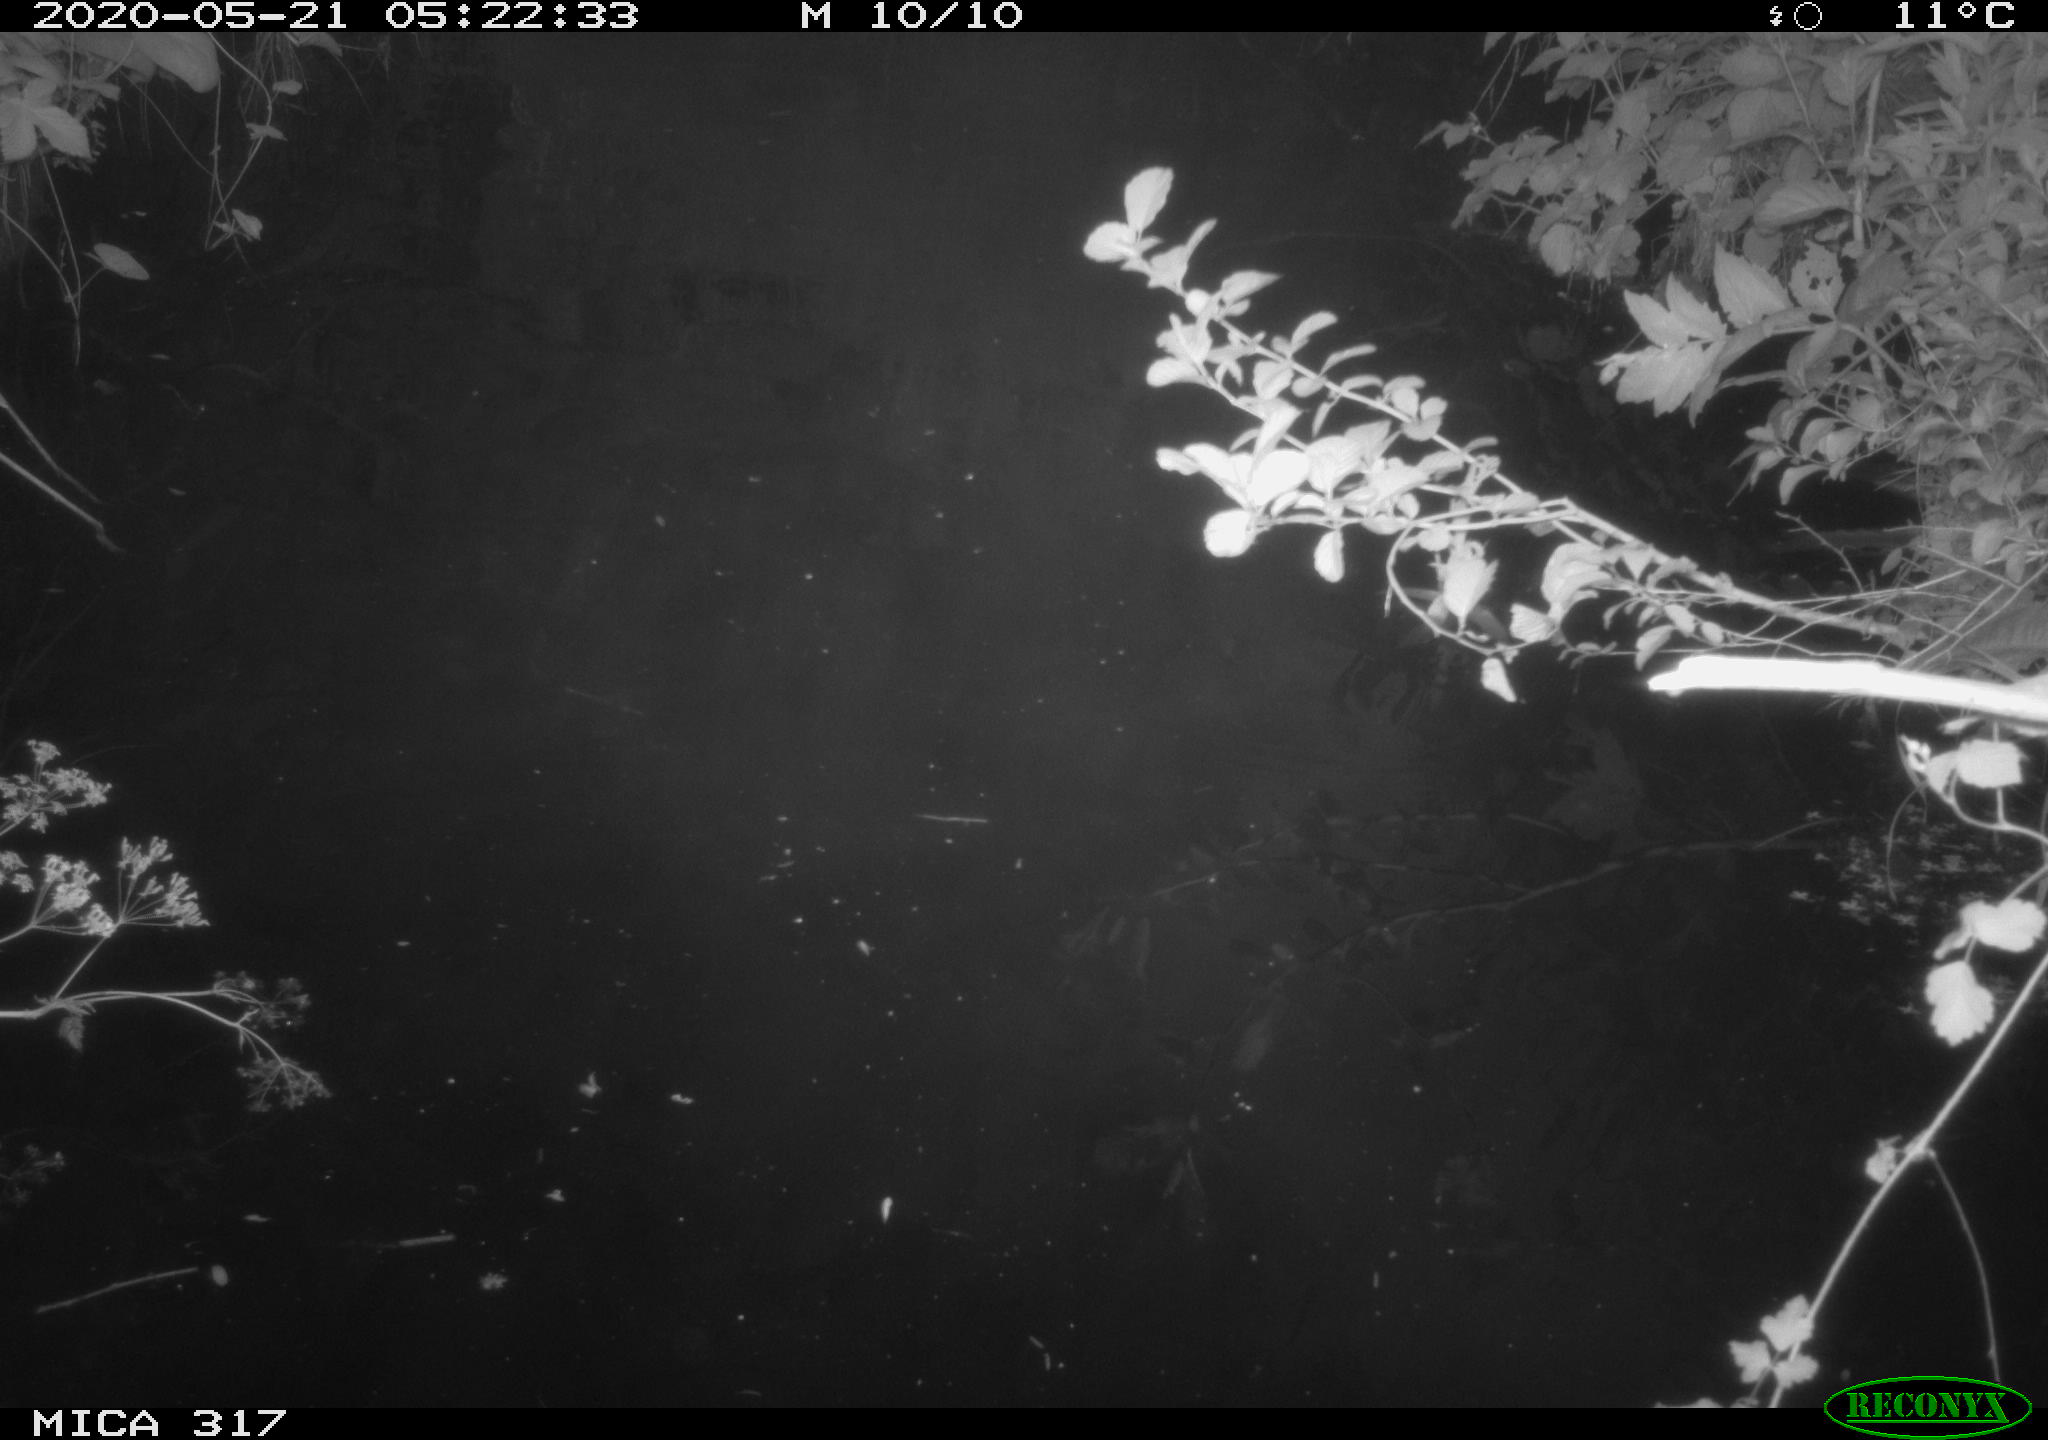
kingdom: Animalia
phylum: Chordata
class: Aves
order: Anseriformes
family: Anatidae
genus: Anas
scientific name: Anas platyrhynchos
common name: Mallard
